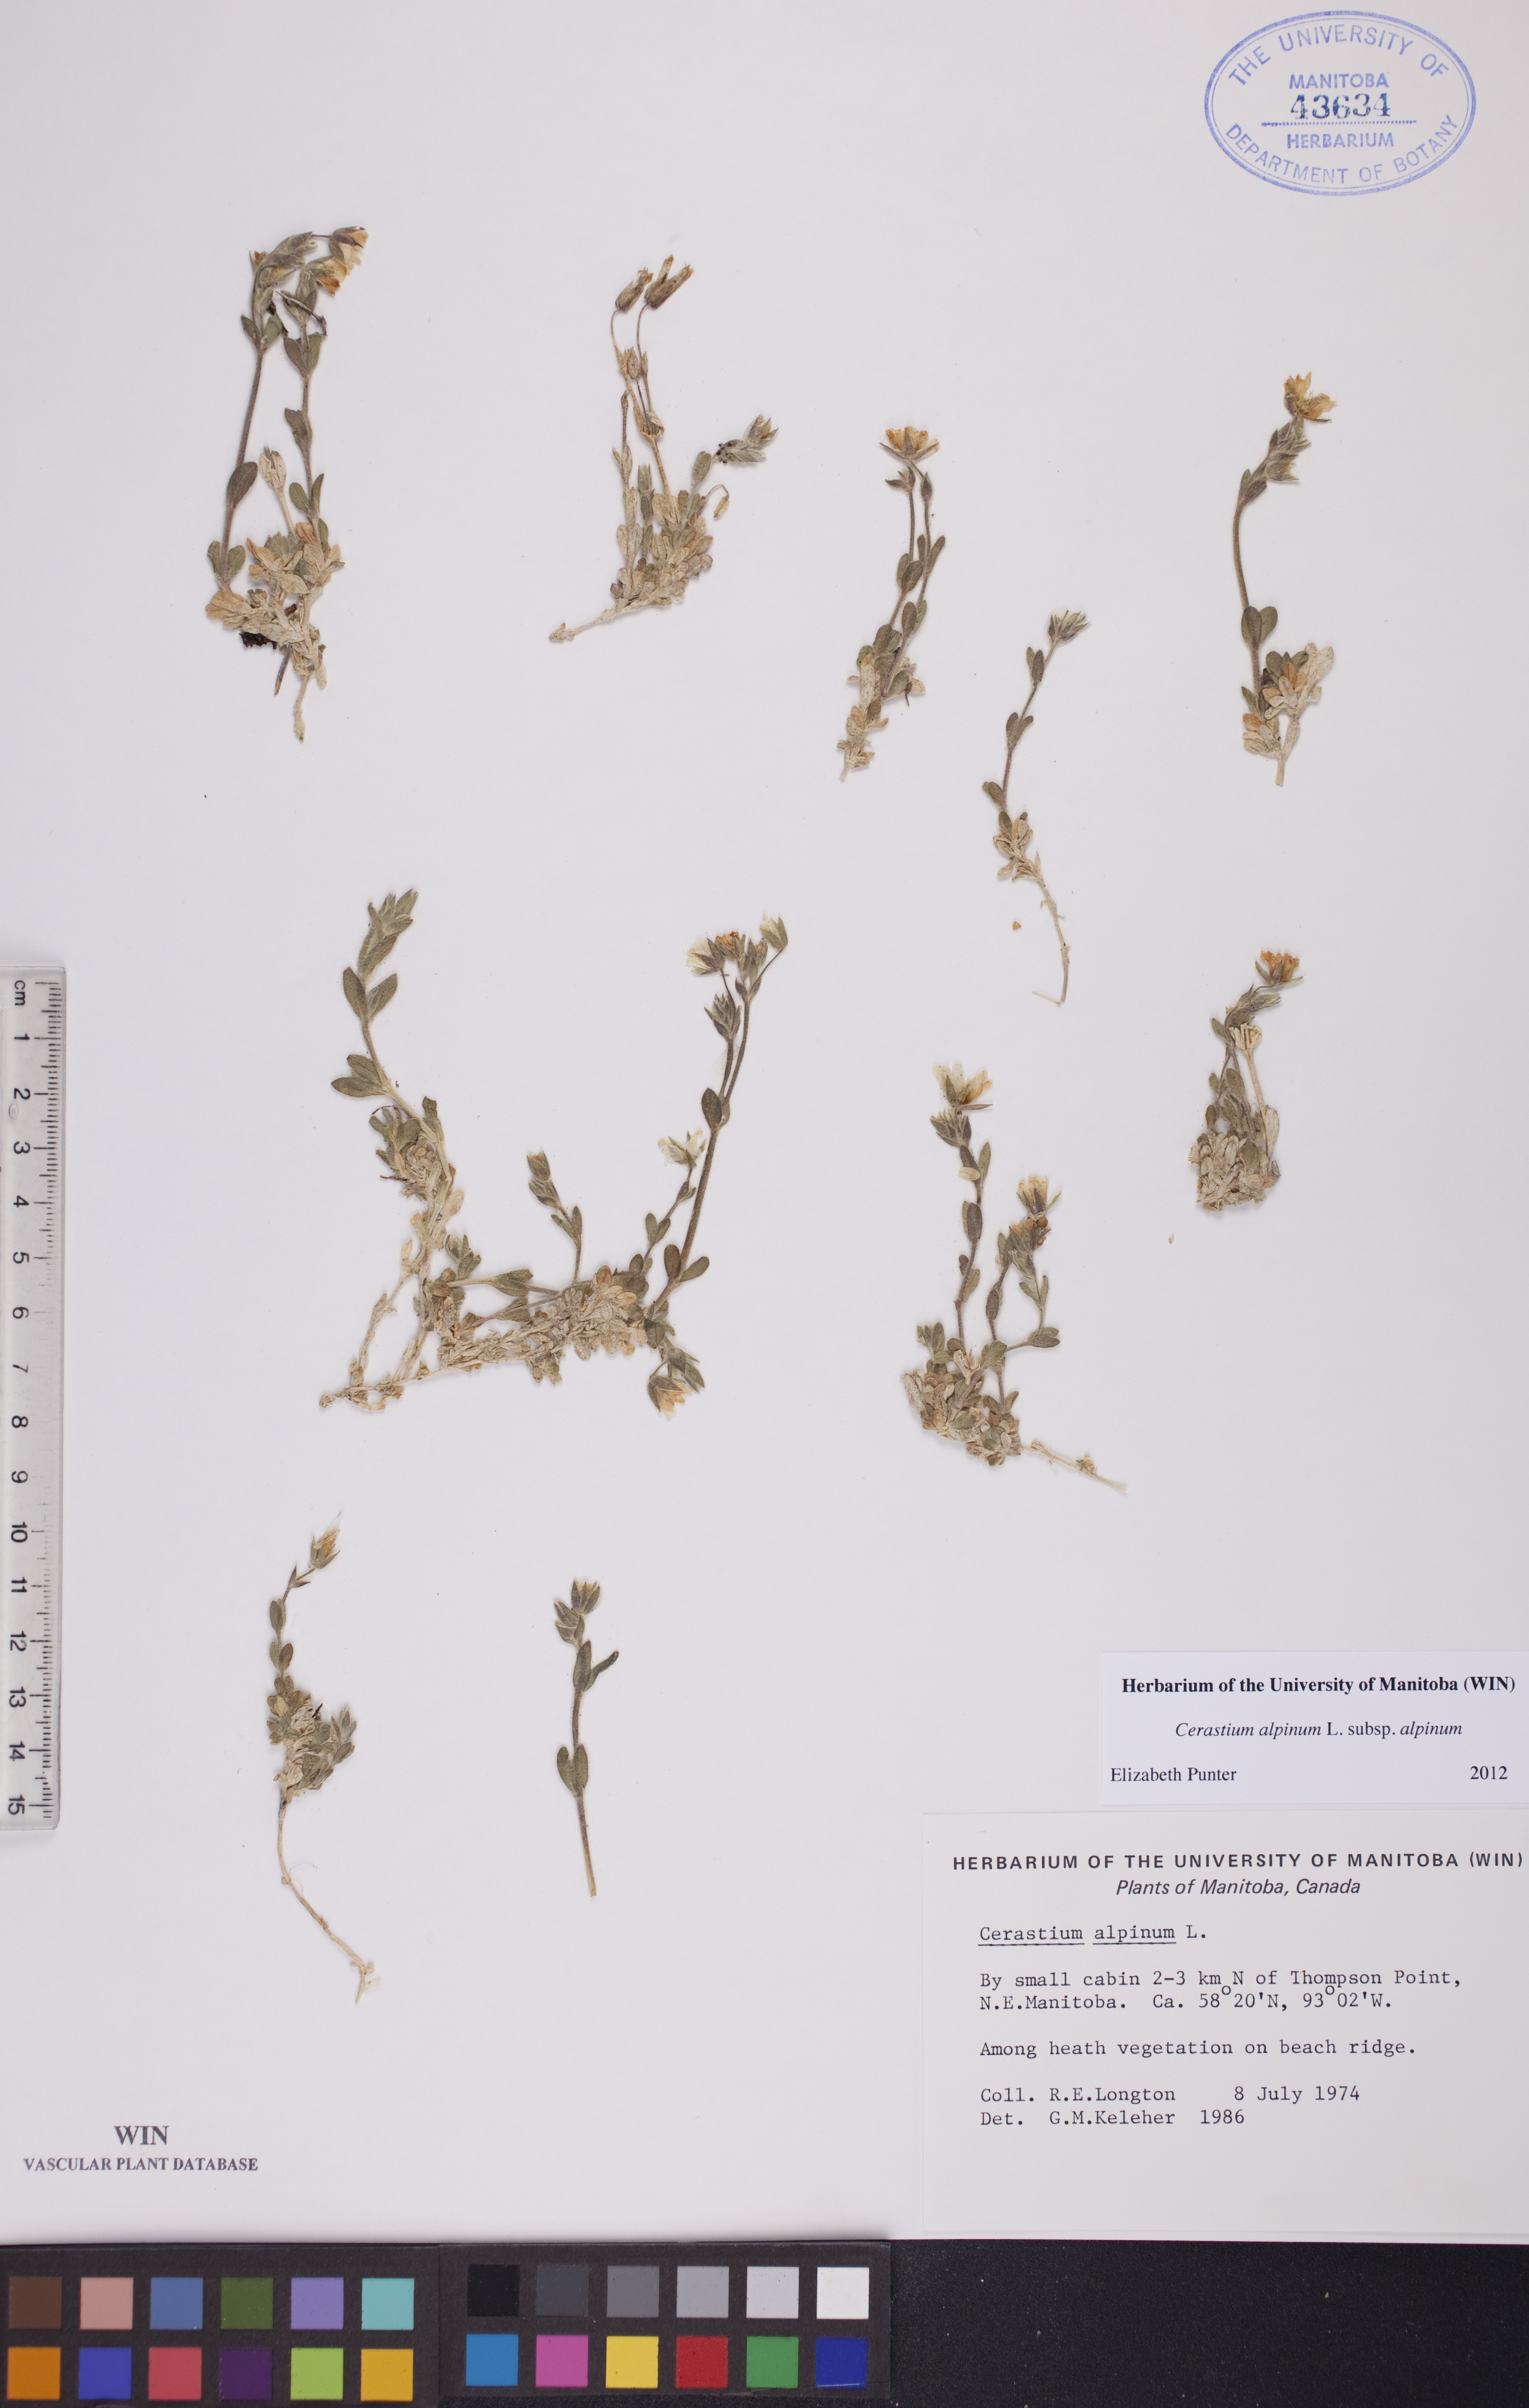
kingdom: Plantae
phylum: Tracheophyta
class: Magnoliopsida
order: Caryophyllales
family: Caryophyllaceae
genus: Cerastium
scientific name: Cerastium alpinum
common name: Alpine mouse-ear
